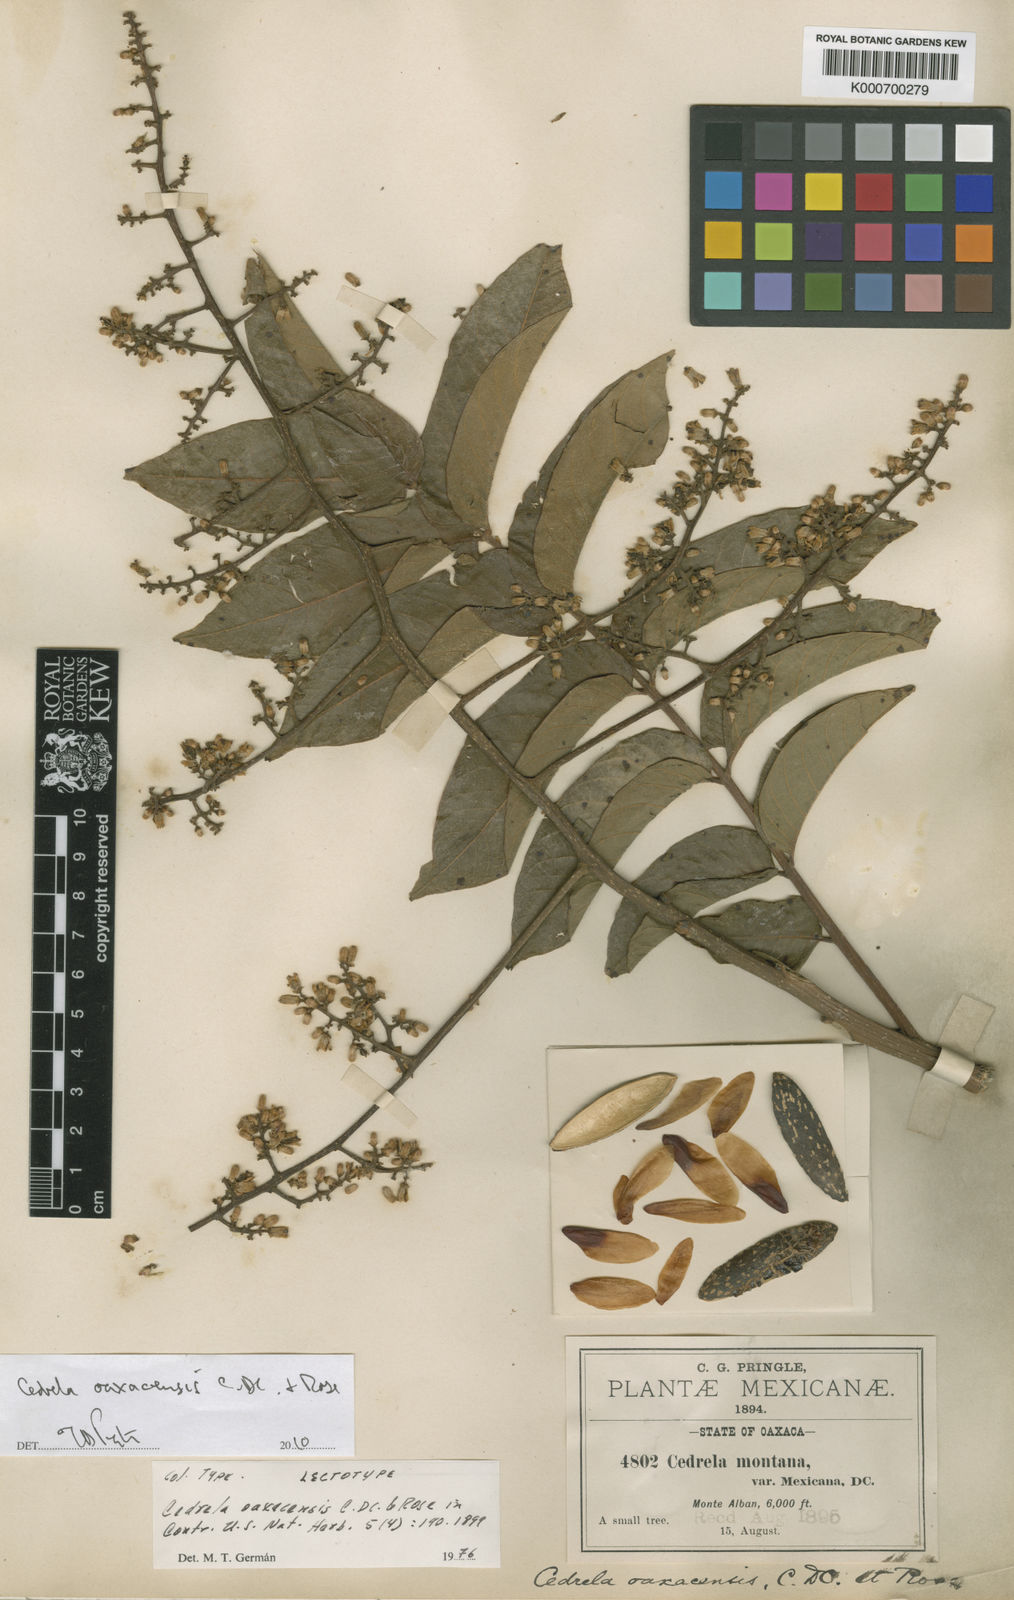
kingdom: Plantae
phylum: Tracheophyta
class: Magnoliopsida
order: Sapindales
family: Meliaceae
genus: Cedrela
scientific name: Cedrela oaxacensis
